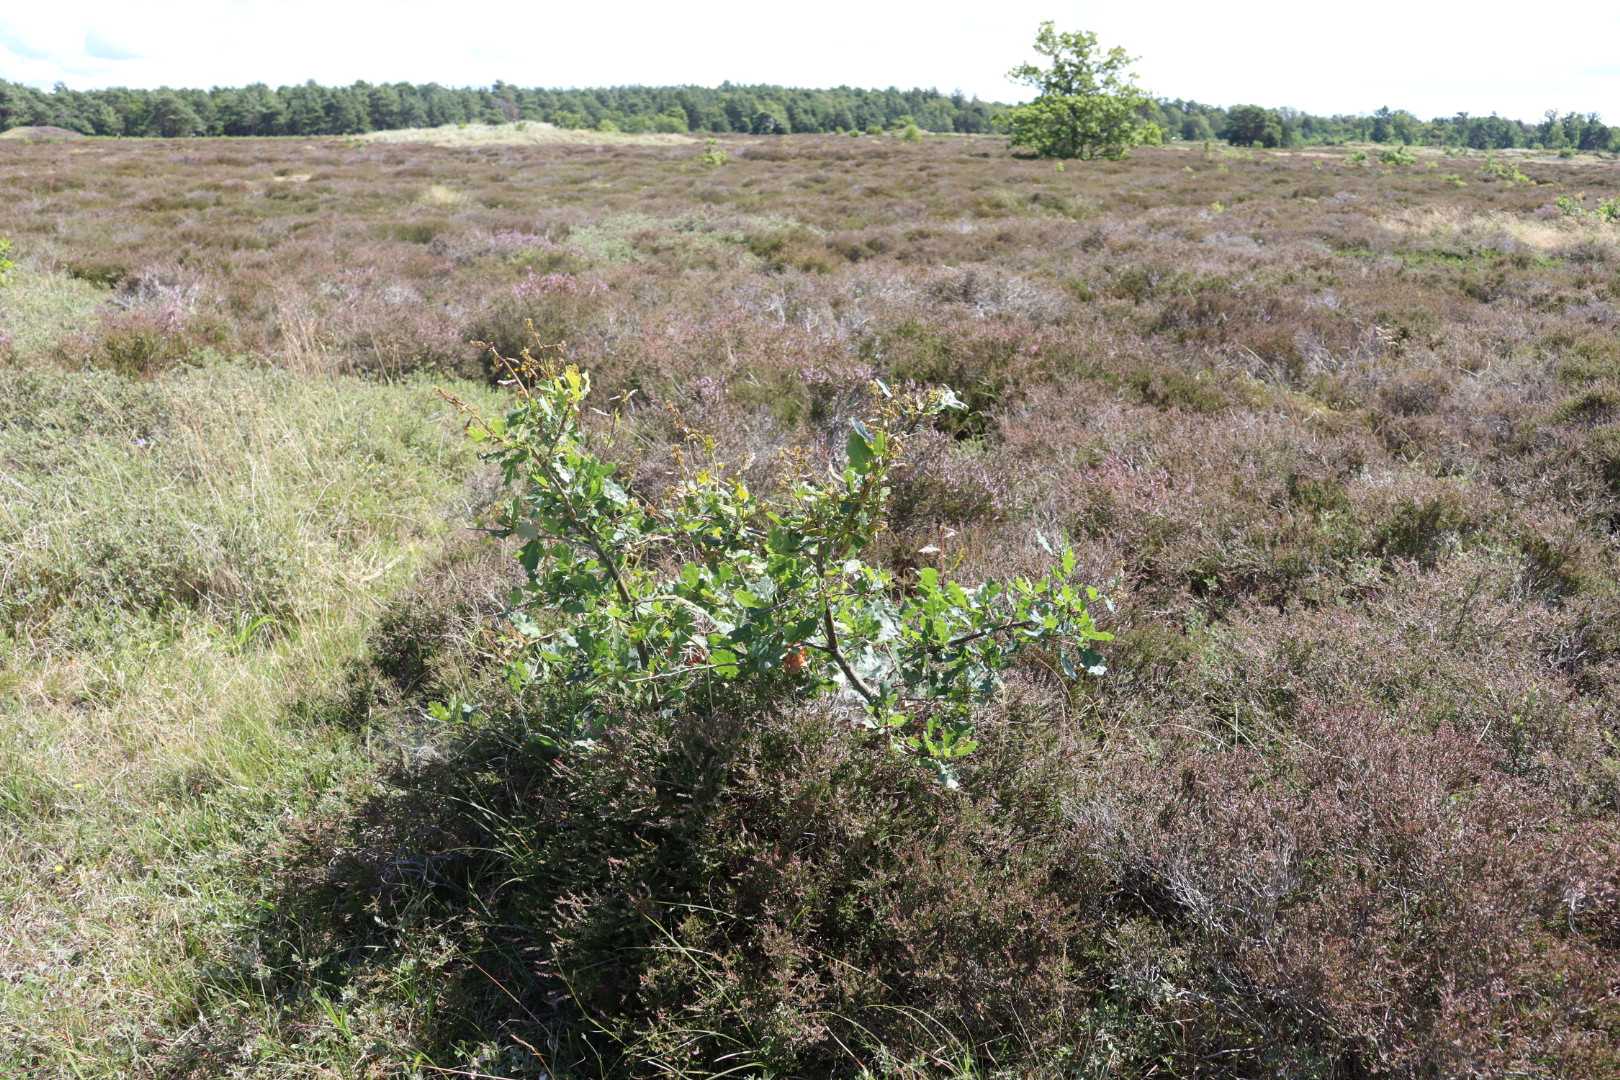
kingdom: Plantae
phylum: Tracheophyta
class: Magnoliopsida
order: Fagales
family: Fagaceae
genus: Quercus
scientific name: Quercus robur
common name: Stilk-eg/almindelig eg
